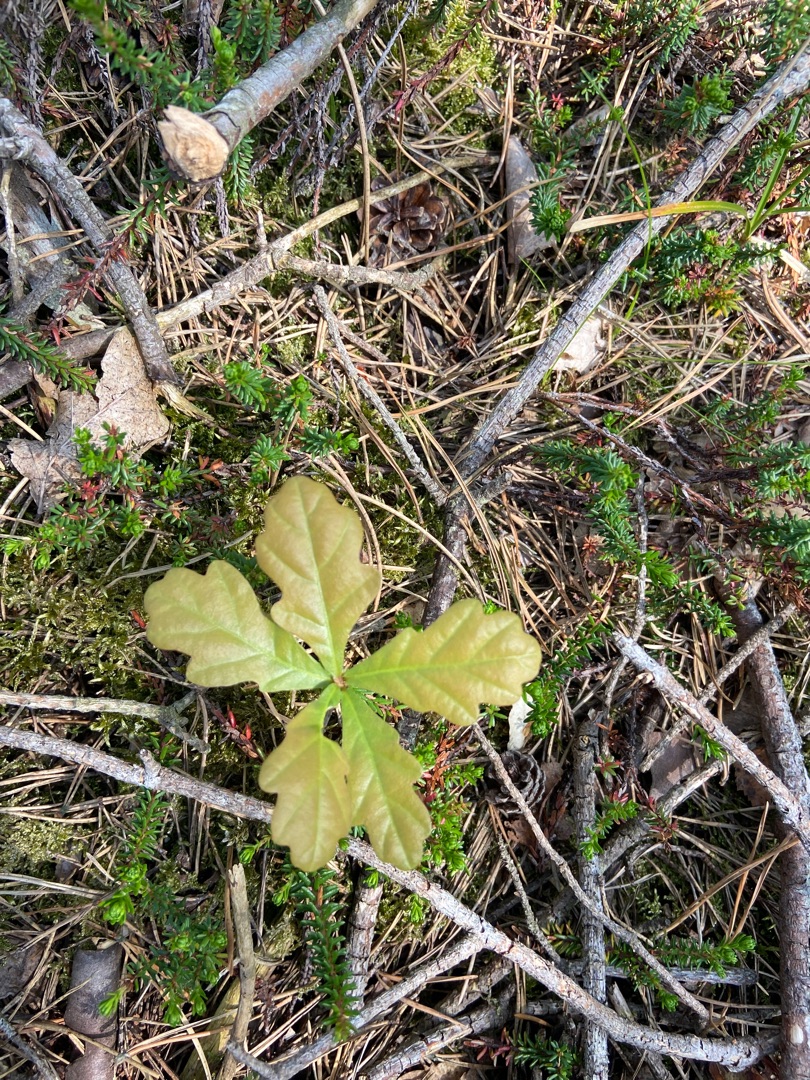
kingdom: Plantae
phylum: Tracheophyta
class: Magnoliopsida
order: Fagales
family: Fagaceae
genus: Quercus
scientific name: Quercus robur
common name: Stilk-eg/almindelig eg
